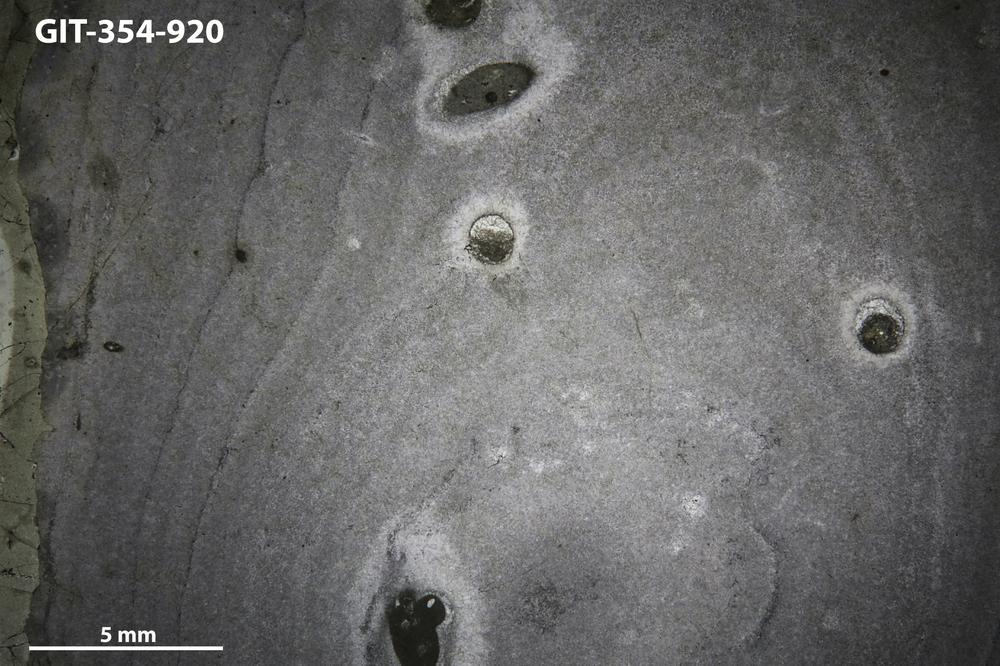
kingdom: Animalia
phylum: Porifera
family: Densastromatidae
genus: Densastroma
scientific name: Densastroma Actinostroma pexisum
